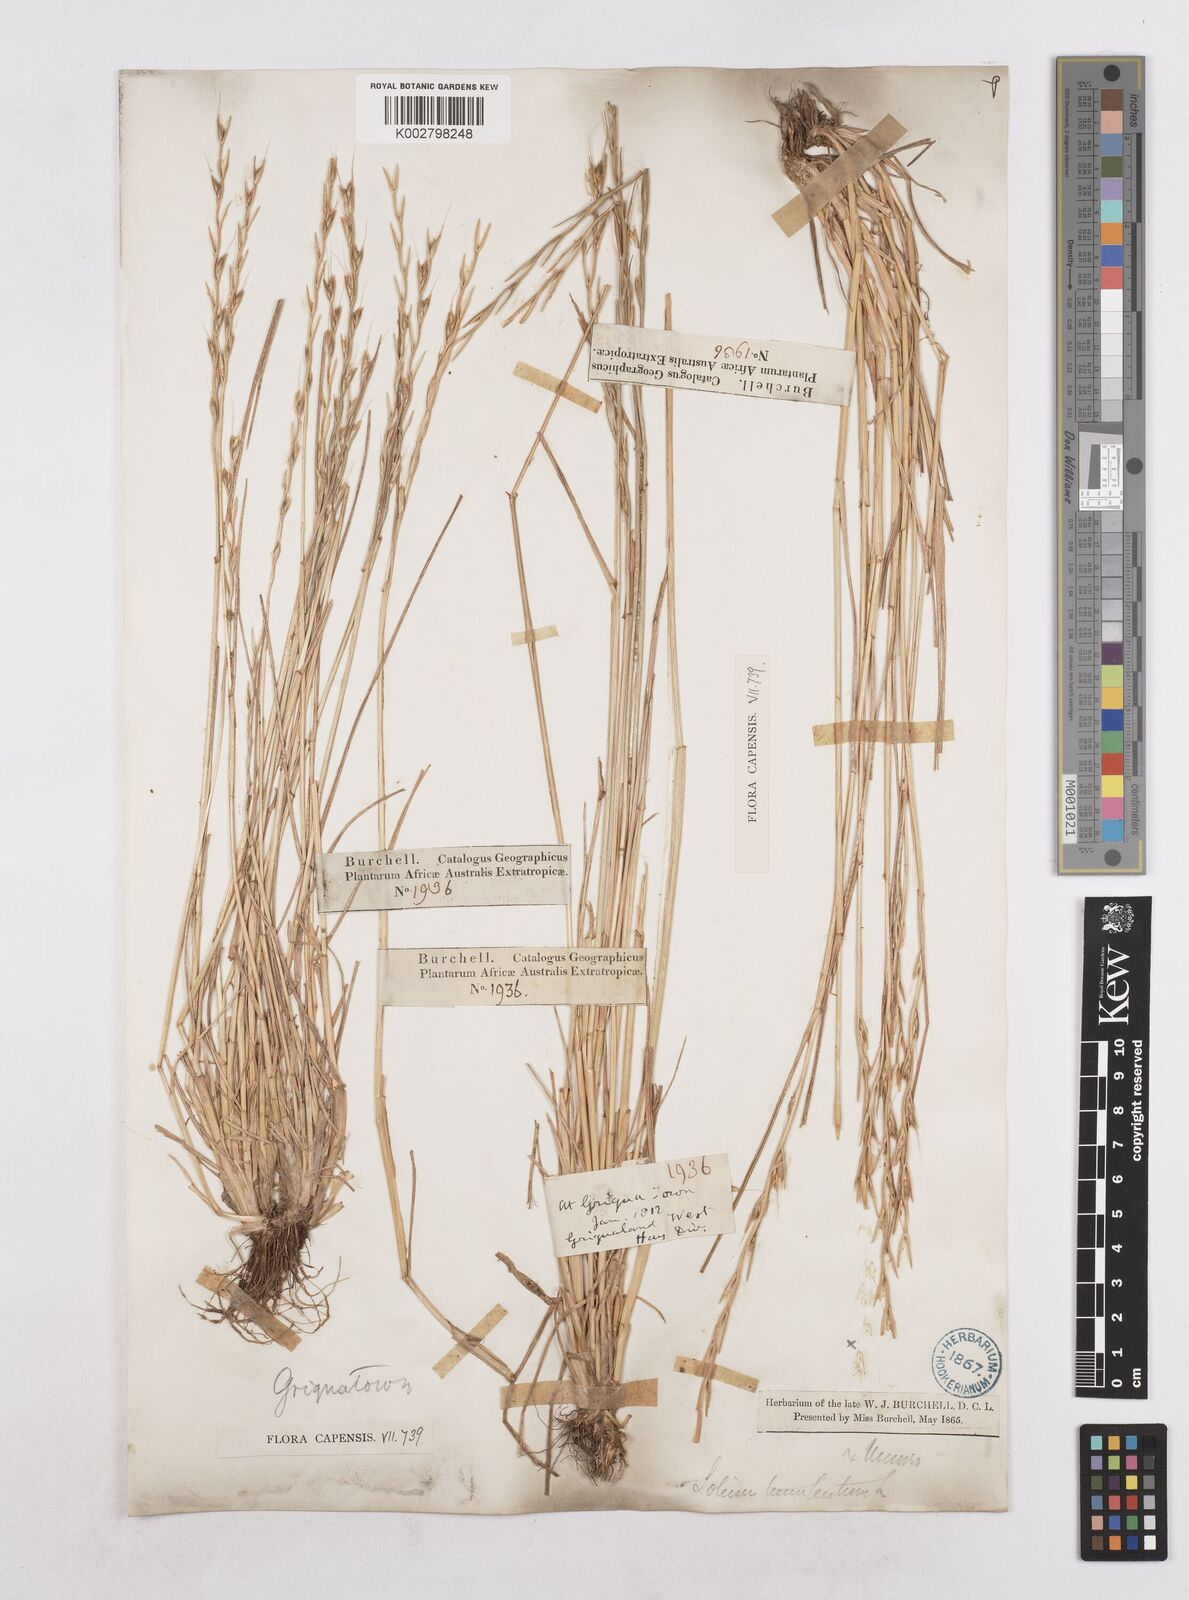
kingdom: Plantae
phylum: Tracheophyta
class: Liliopsida
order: Poales
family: Poaceae
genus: Lolium
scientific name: Lolium temulentum
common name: Darnel
